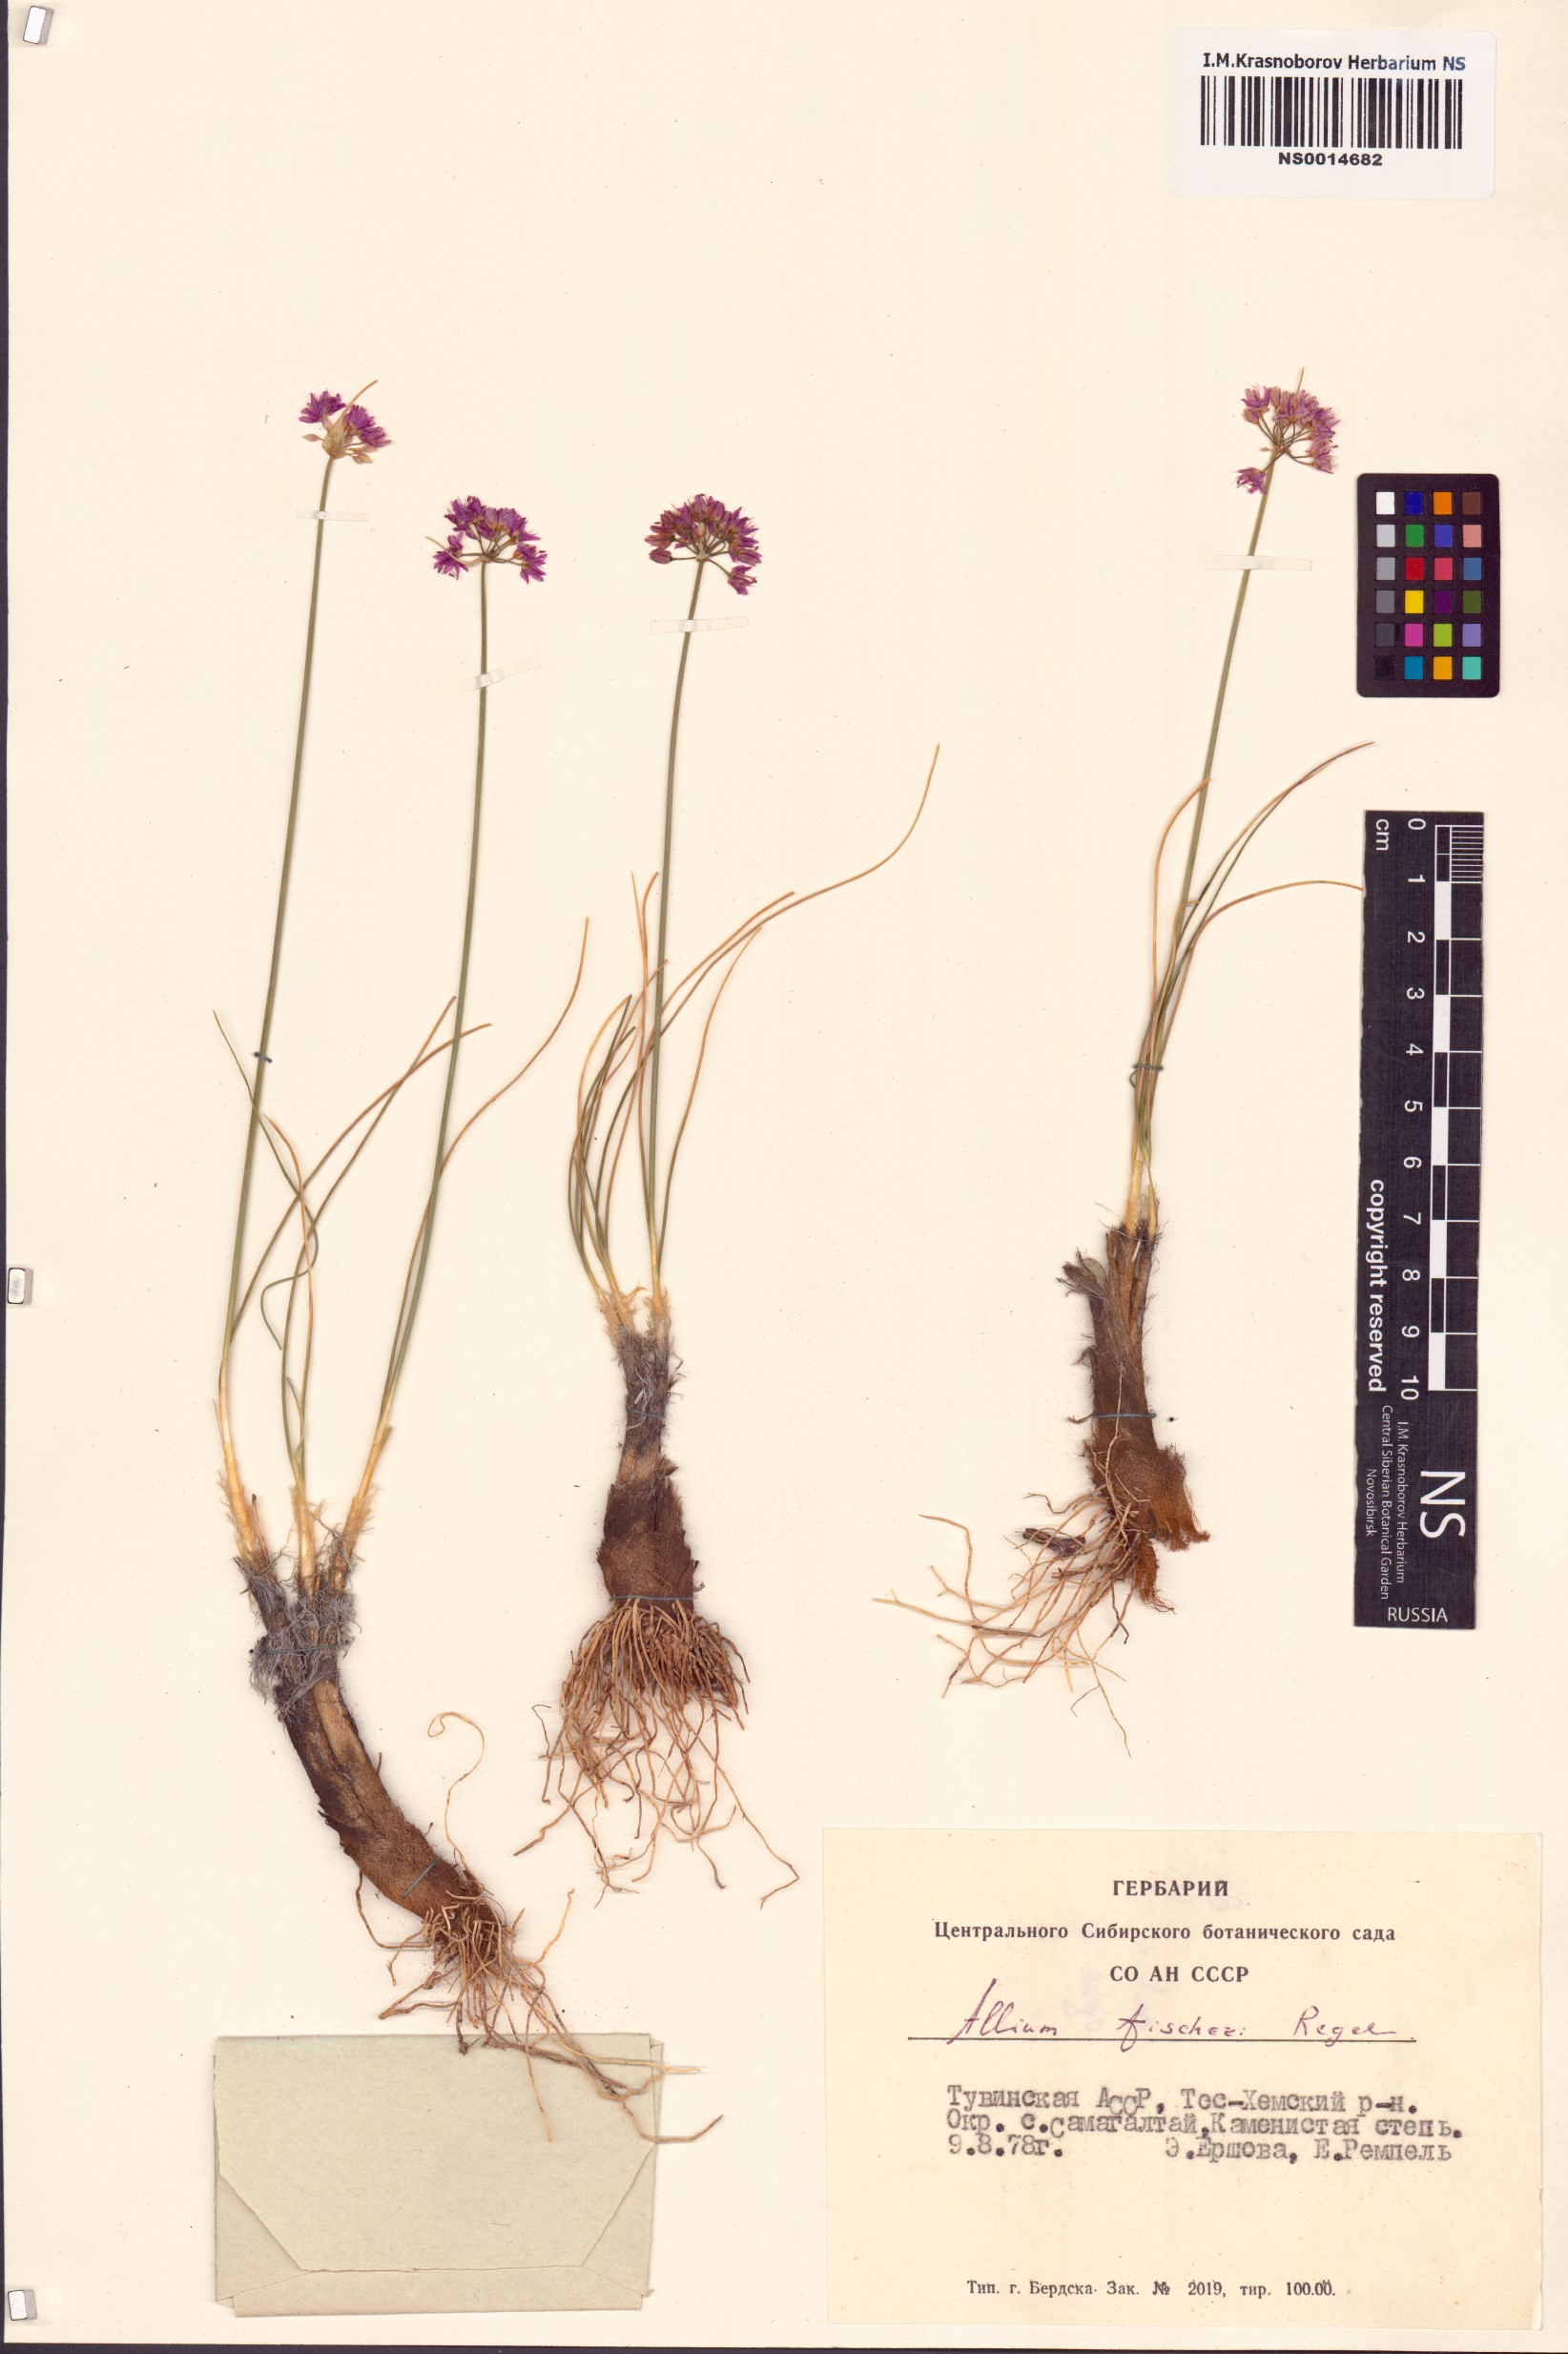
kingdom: Plantae
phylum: Tracheophyta
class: Liliopsida
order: Asparagales
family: Amaryllidaceae
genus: Allium
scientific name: Allium eduardi
